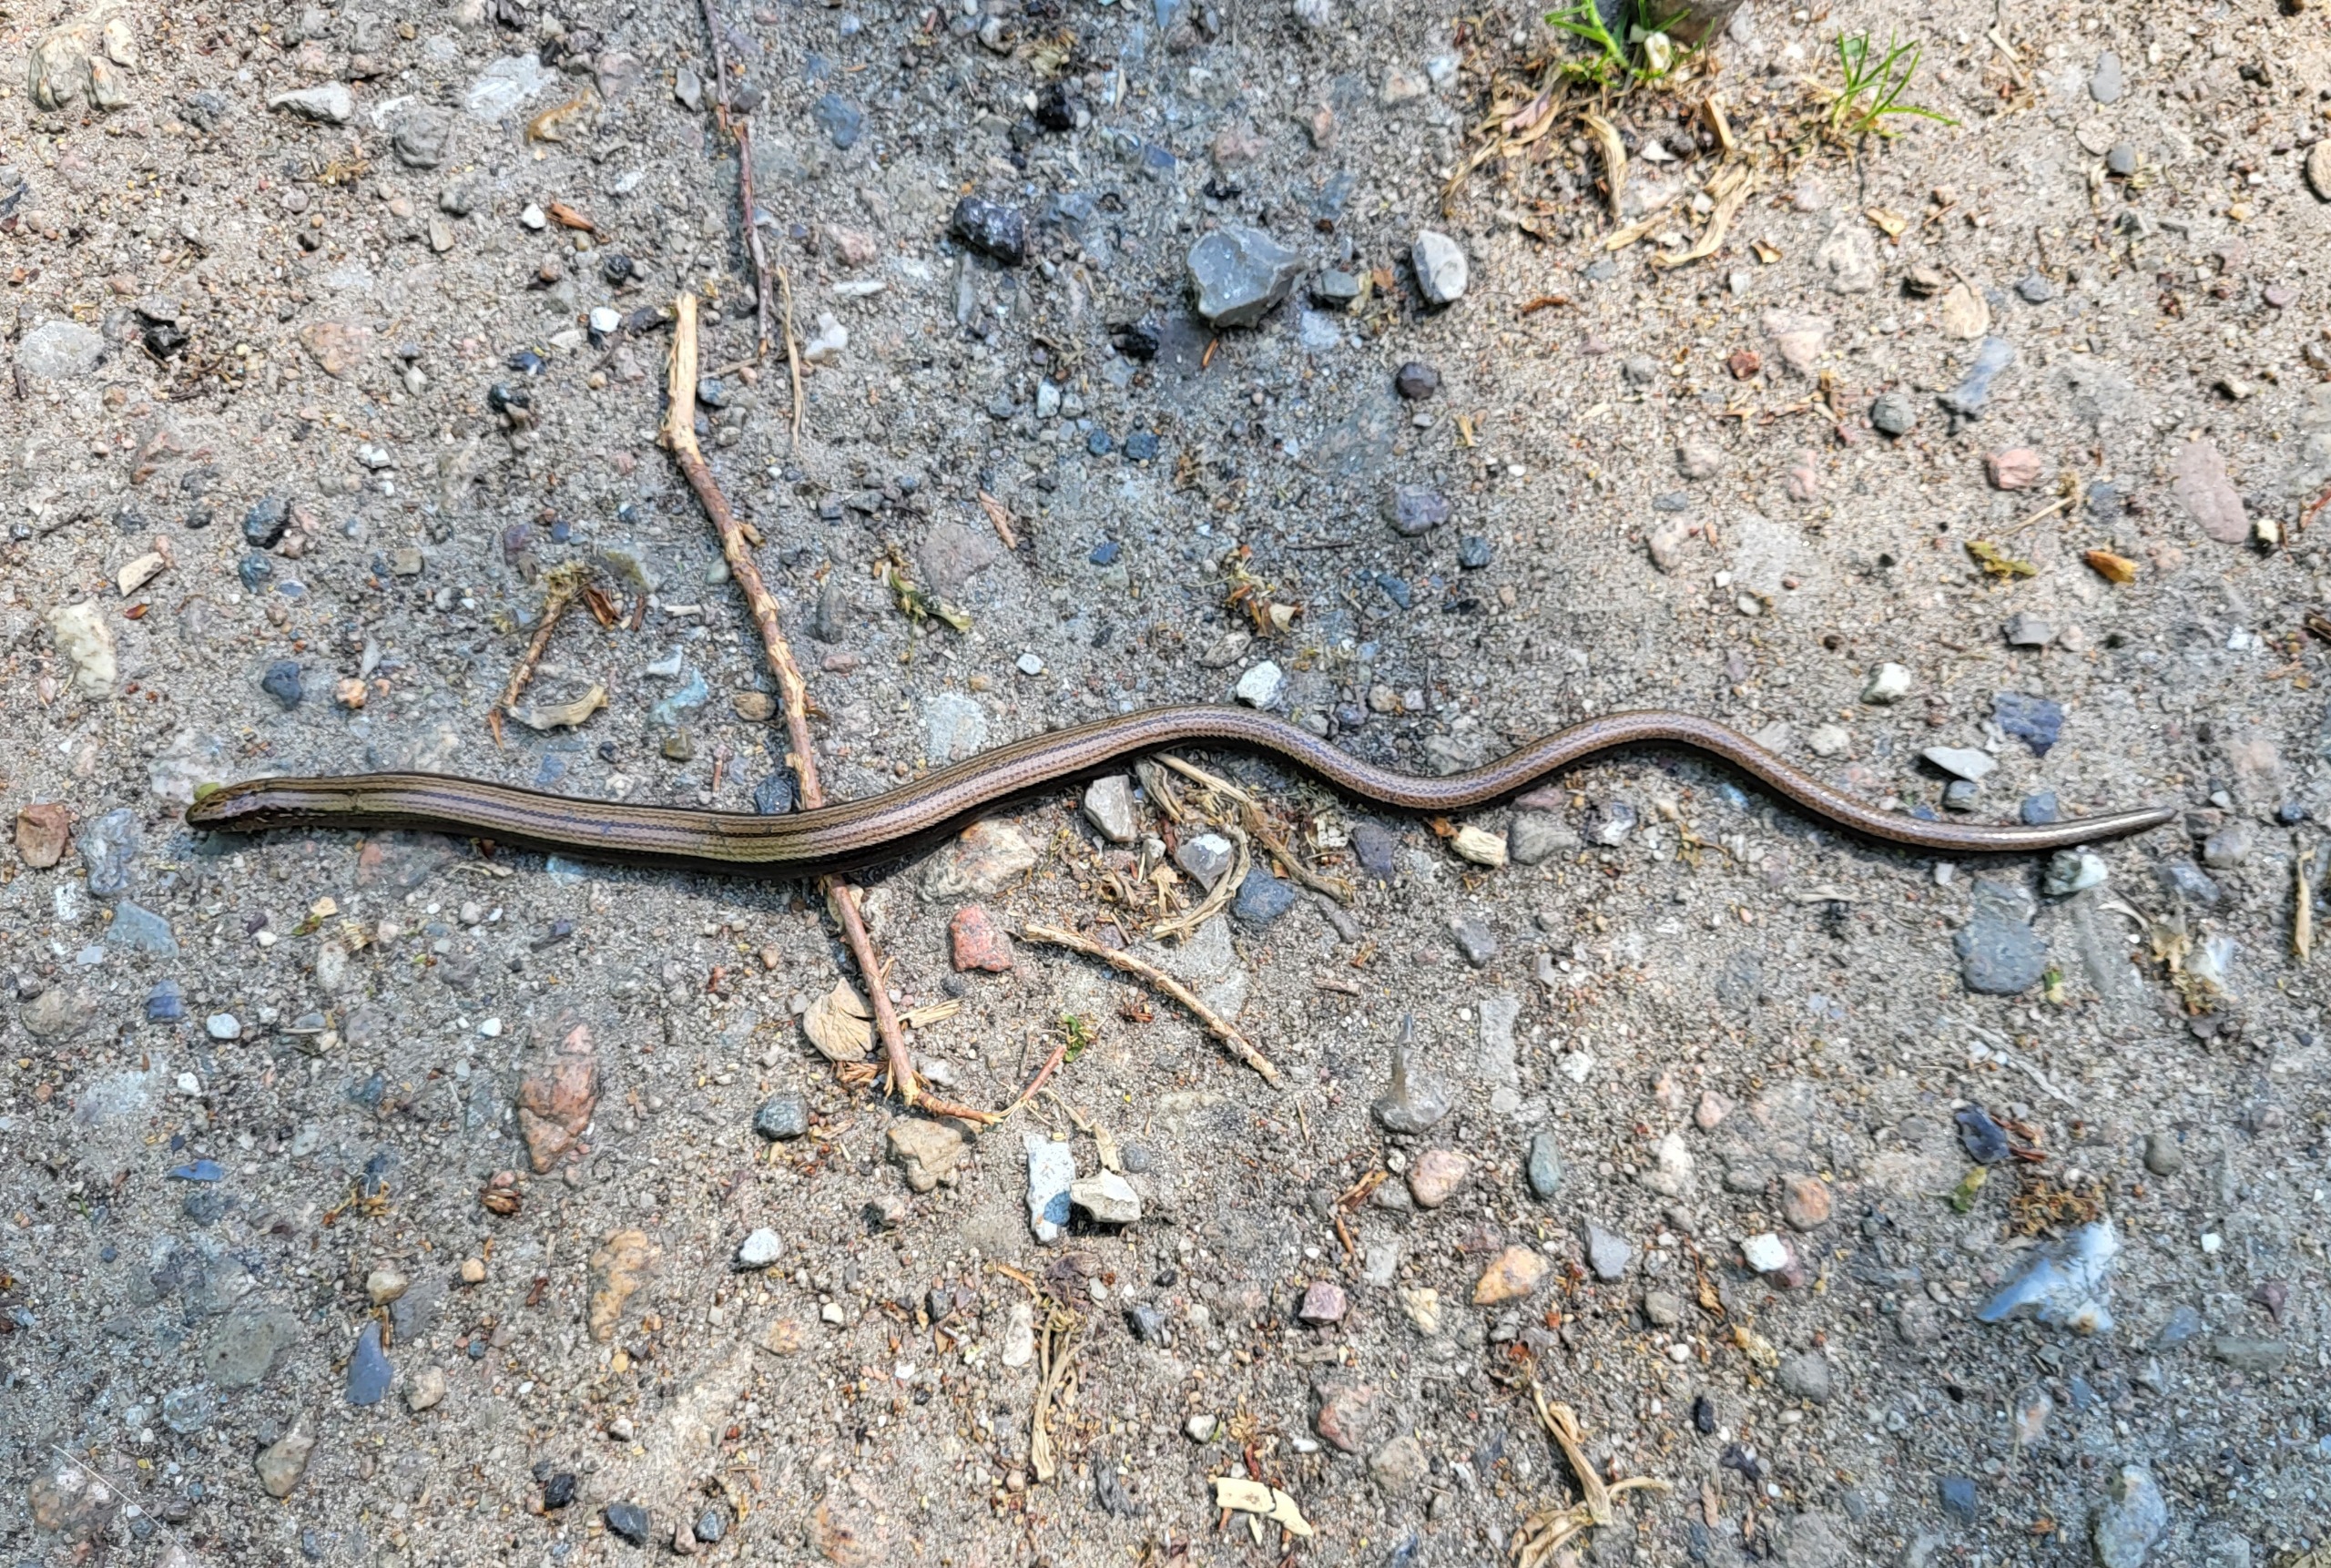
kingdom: Animalia
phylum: Chordata
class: Squamata
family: Anguidae
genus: Anguis
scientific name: Anguis fragilis
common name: Stålorm
